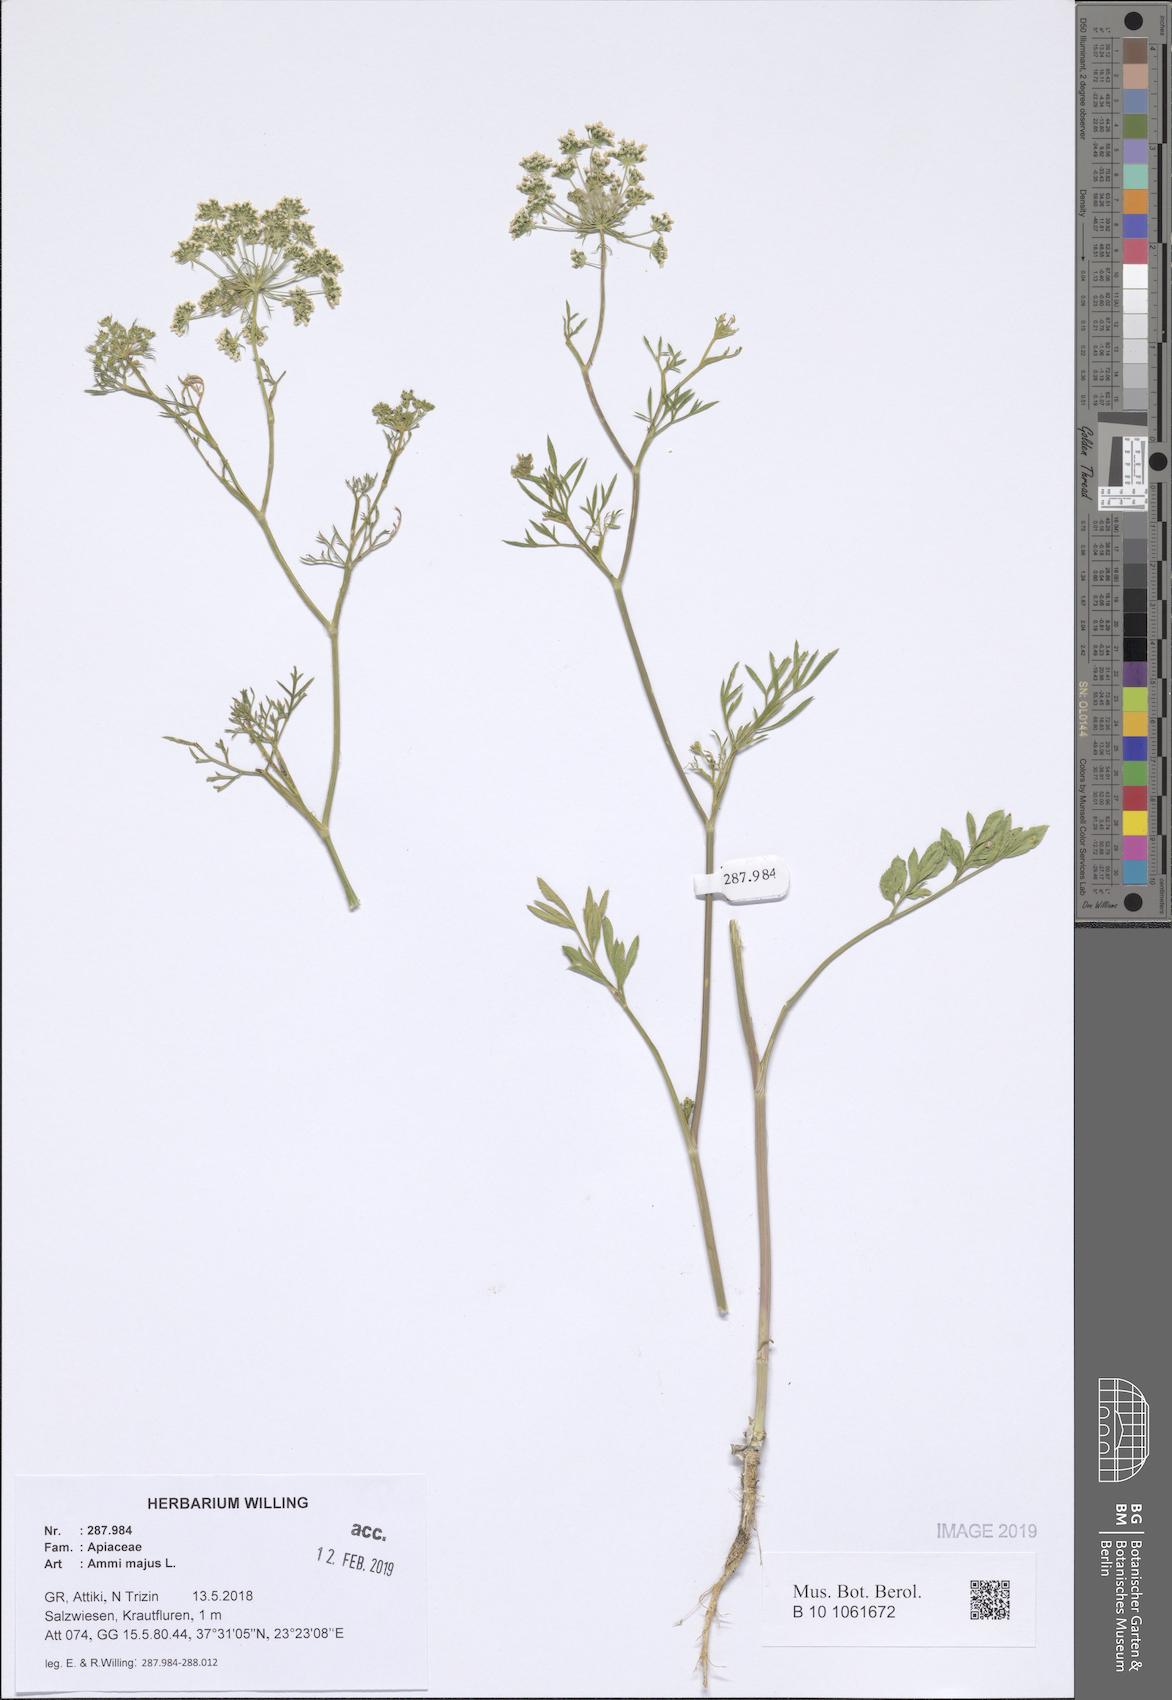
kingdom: Plantae
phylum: Tracheophyta
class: Magnoliopsida
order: Apiales
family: Apiaceae
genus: Ammi
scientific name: Ammi majus
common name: Bullwort
